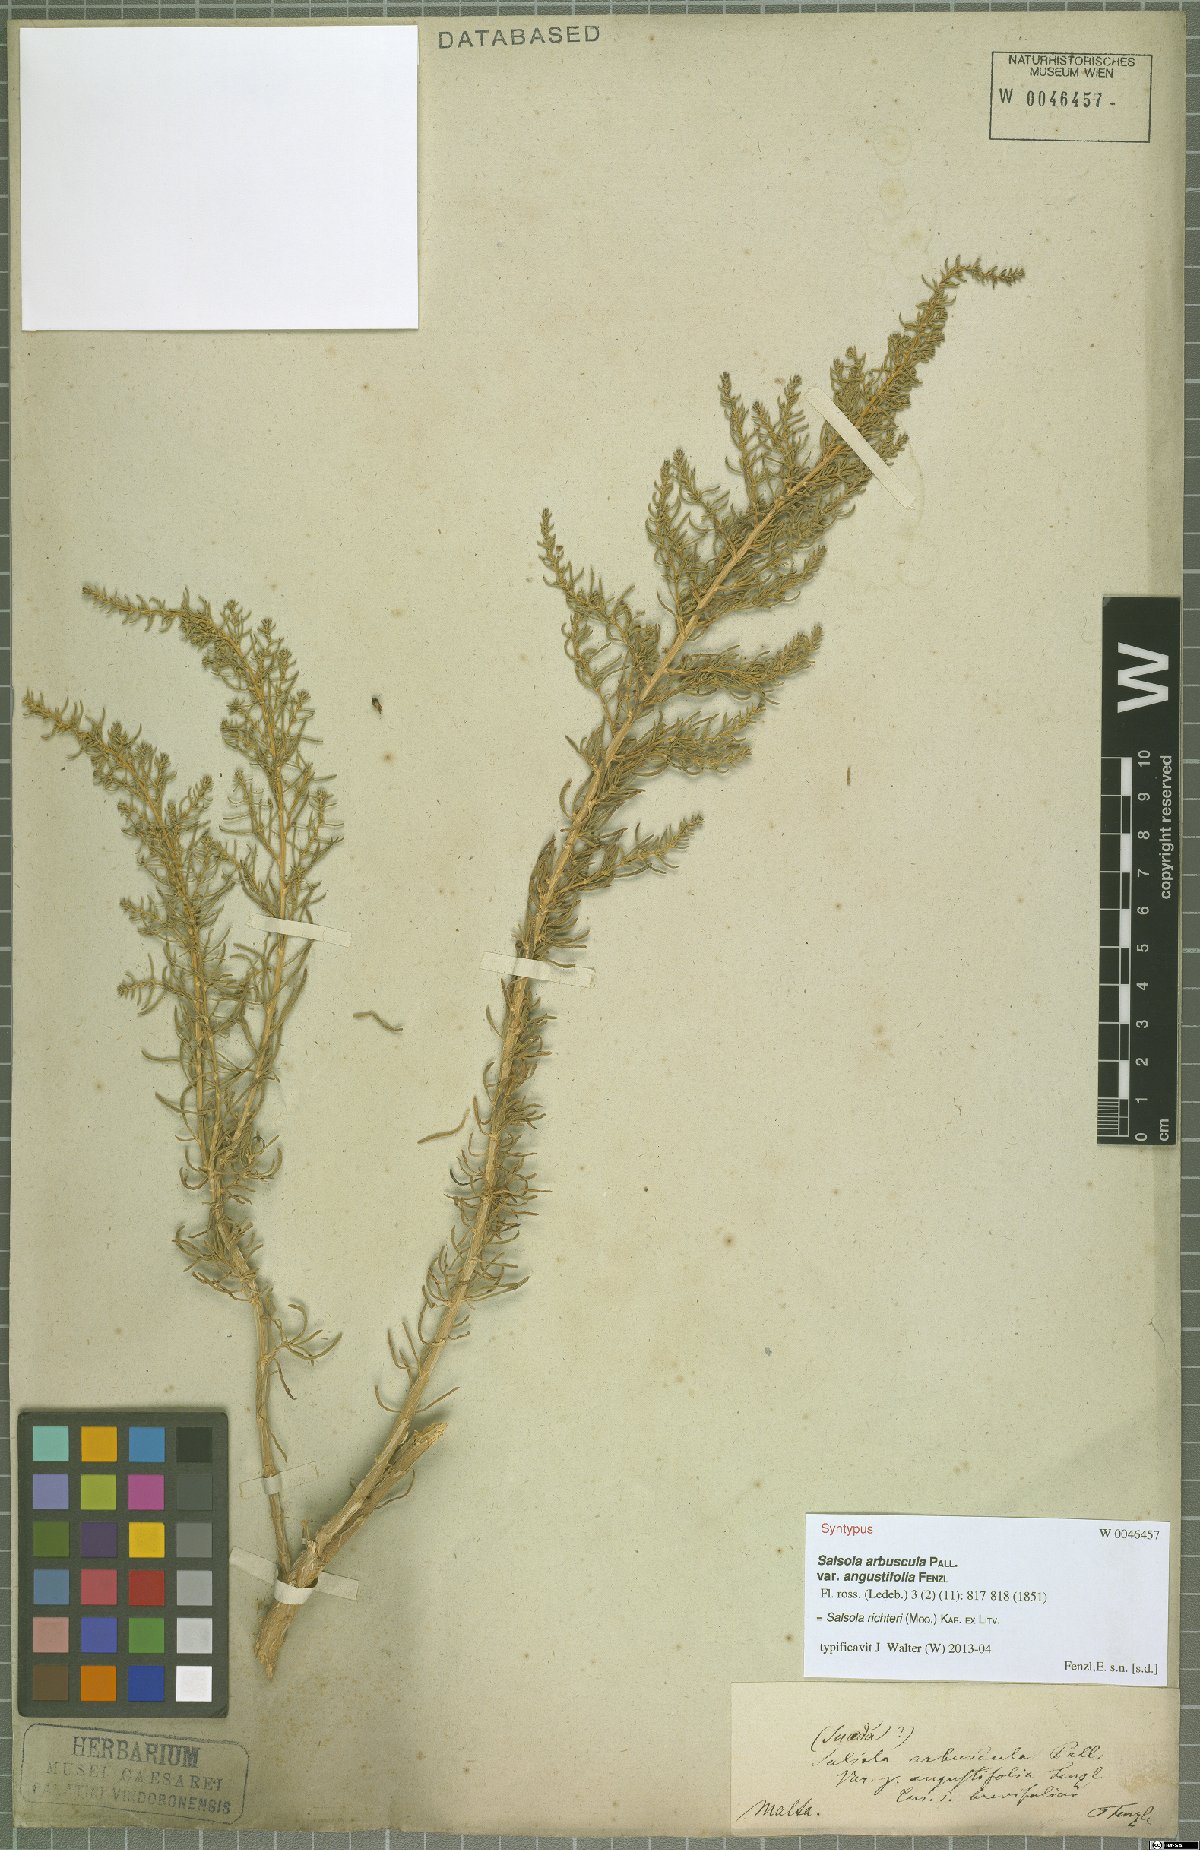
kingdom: Plantae
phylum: Tracheophyta
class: Magnoliopsida
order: Caryophyllales
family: Amaranthaceae
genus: Xylosalsola
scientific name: Xylosalsola richteri
